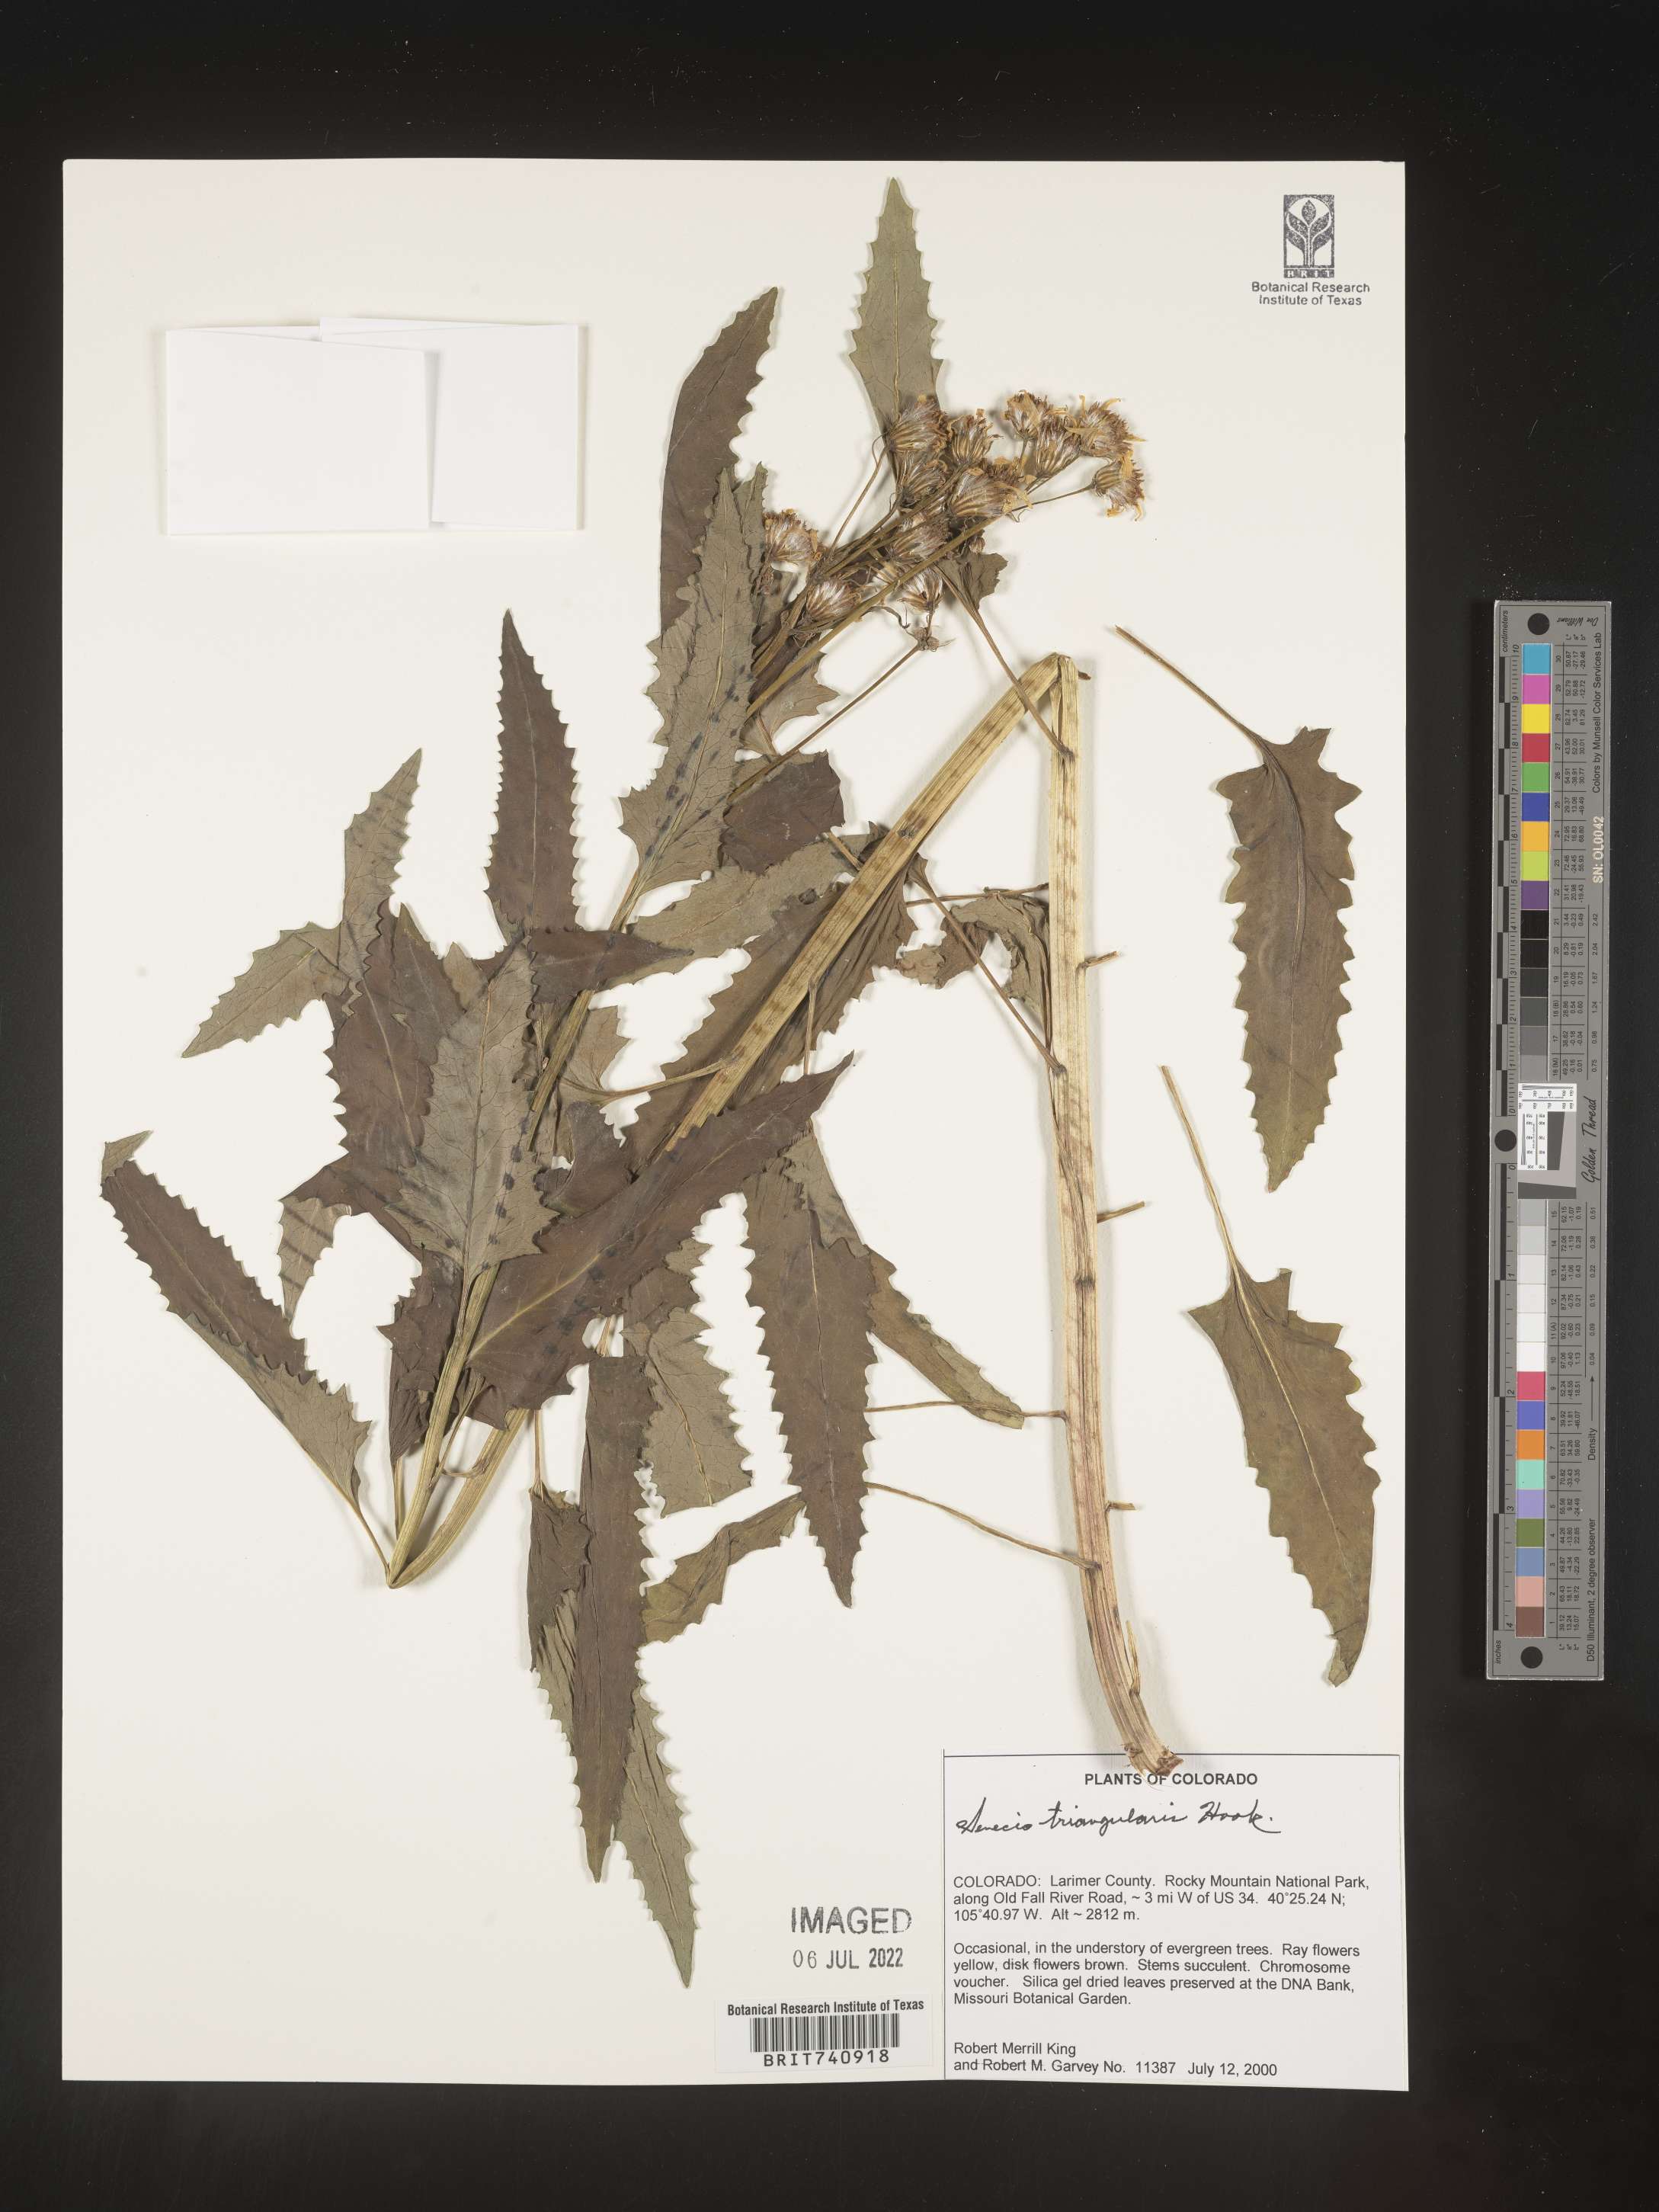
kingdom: Plantae
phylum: Tracheophyta
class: Magnoliopsida
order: Asterales
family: Asteraceae
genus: Senecio
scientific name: Senecio triangularis
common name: Arrowleaf butterweed
